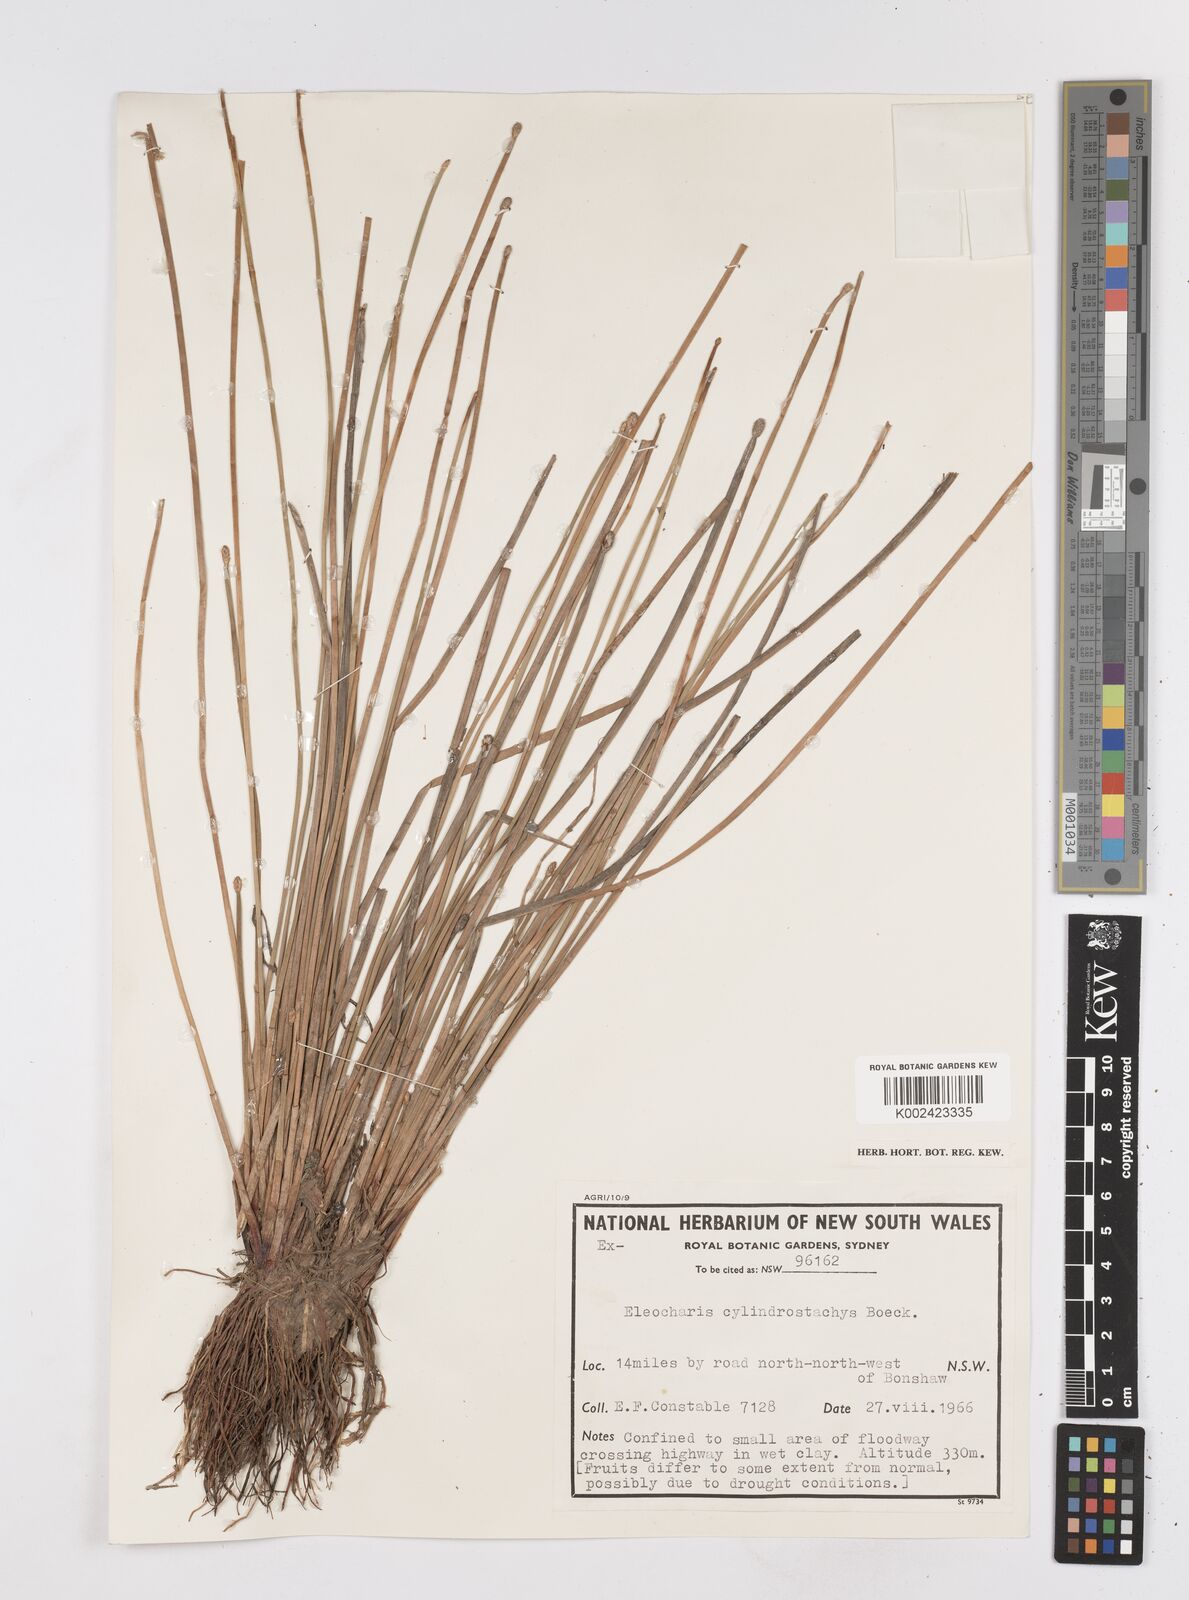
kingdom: Plantae
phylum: Tracheophyta
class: Liliopsida
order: Poales
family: Cyperaceae
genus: Eleocharis
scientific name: Eleocharis cylindrostachys
